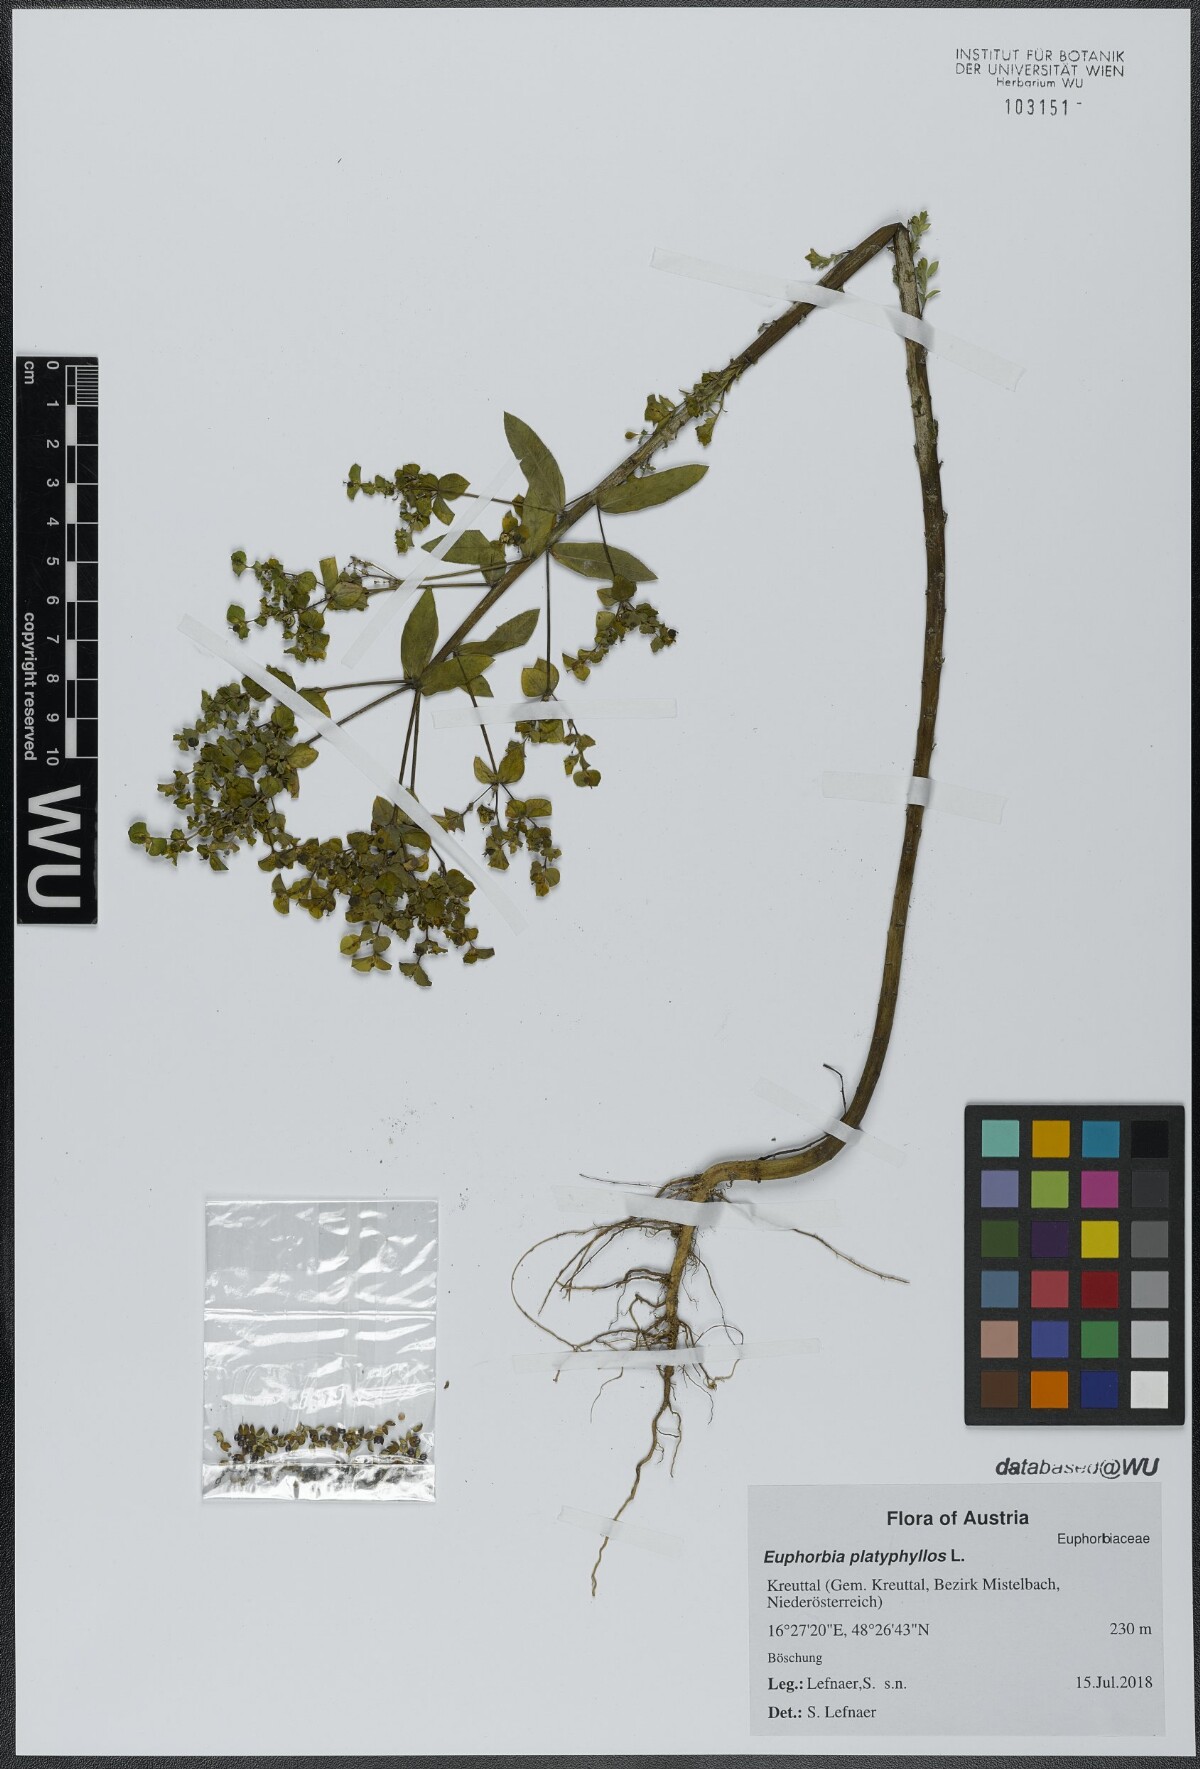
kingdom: Plantae
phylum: Tracheophyta
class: Magnoliopsida
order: Malpighiales
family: Euphorbiaceae
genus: Euphorbia
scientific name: Euphorbia platyphyllos
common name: Broad-leaved spurge
